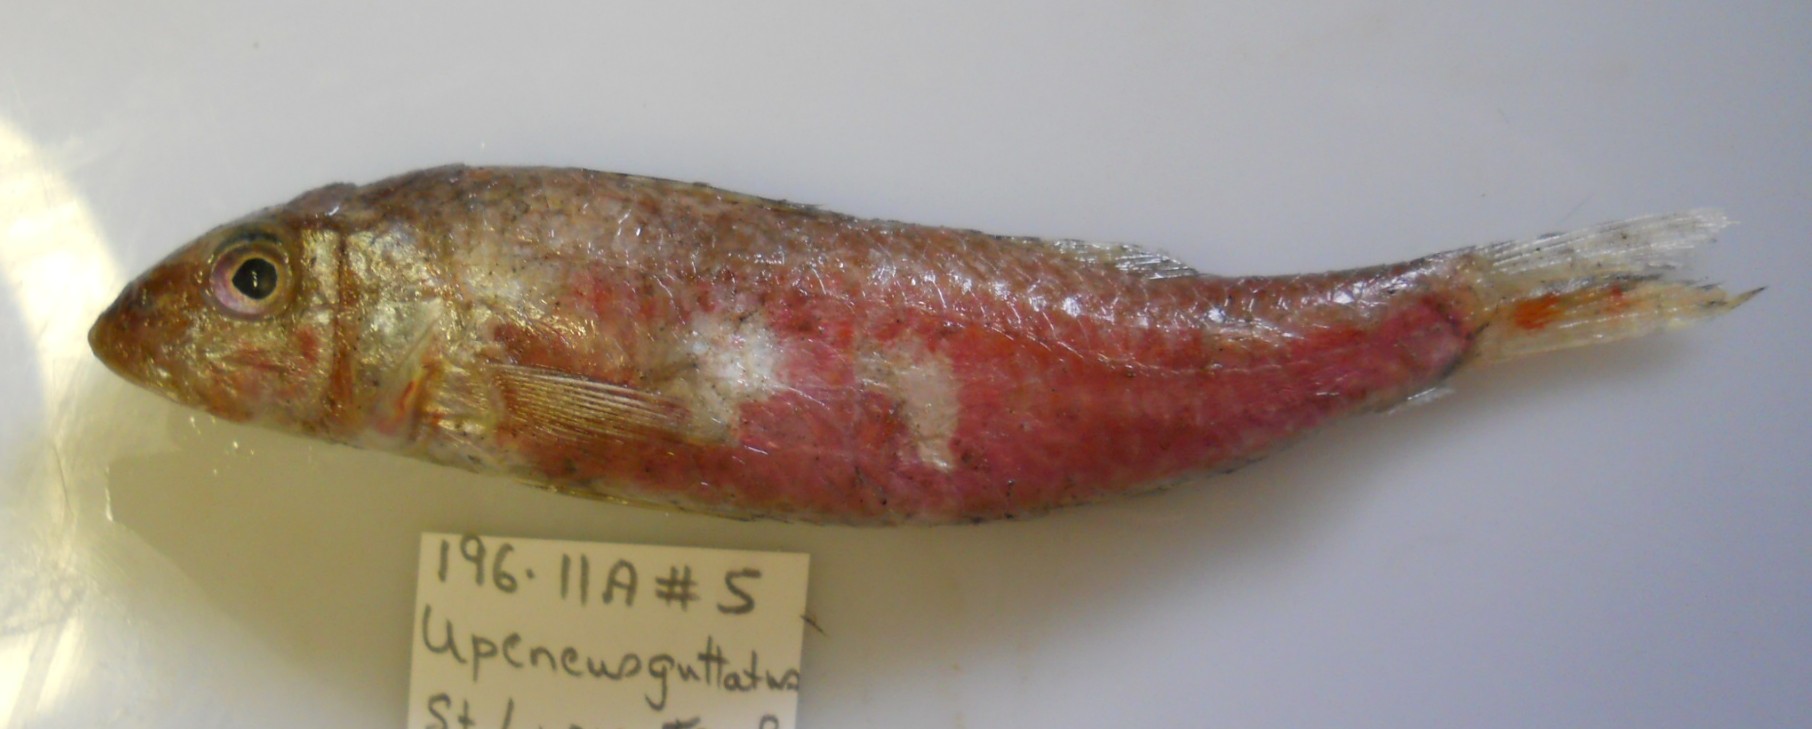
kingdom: Animalia
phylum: Chordata
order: Perciformes
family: Mullidae
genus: Upeneus
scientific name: Upeneus floros
